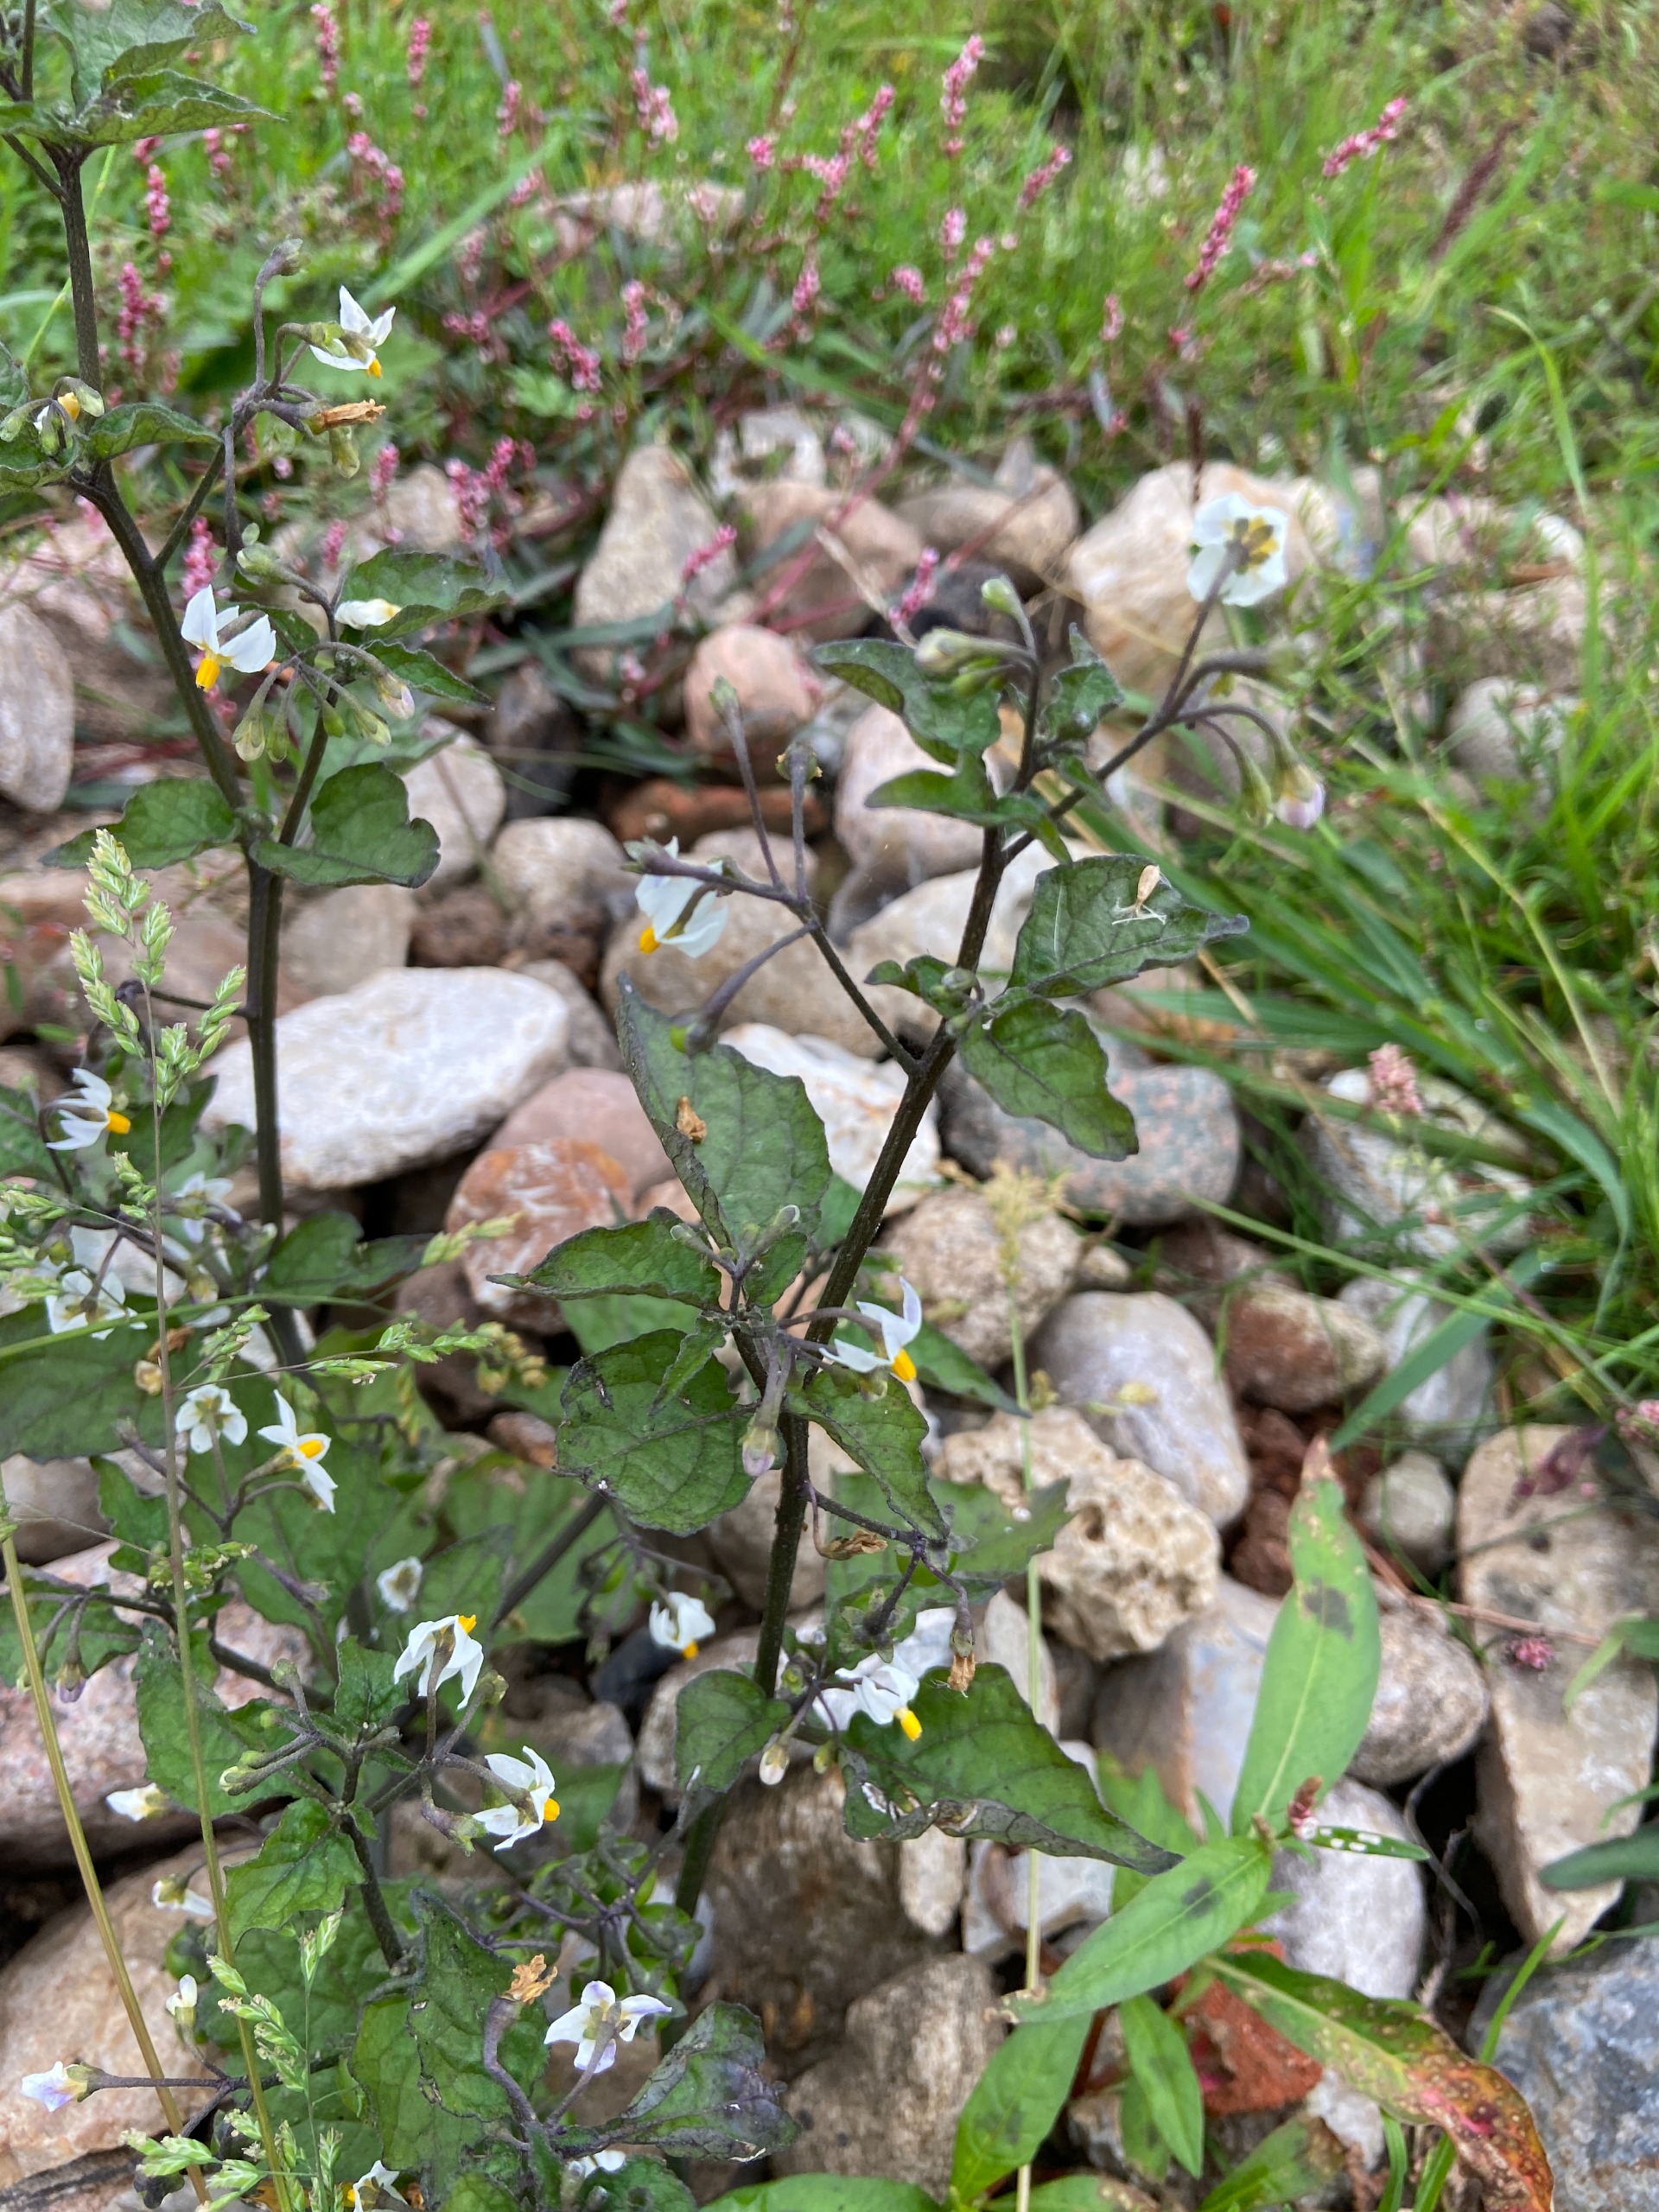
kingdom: Plantae
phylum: Tracheophyta
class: Magnoliopsida
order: Solanales
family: Solanaceae
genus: Solanum
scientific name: Solanum nigrum
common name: Sort natskygge (underart)
